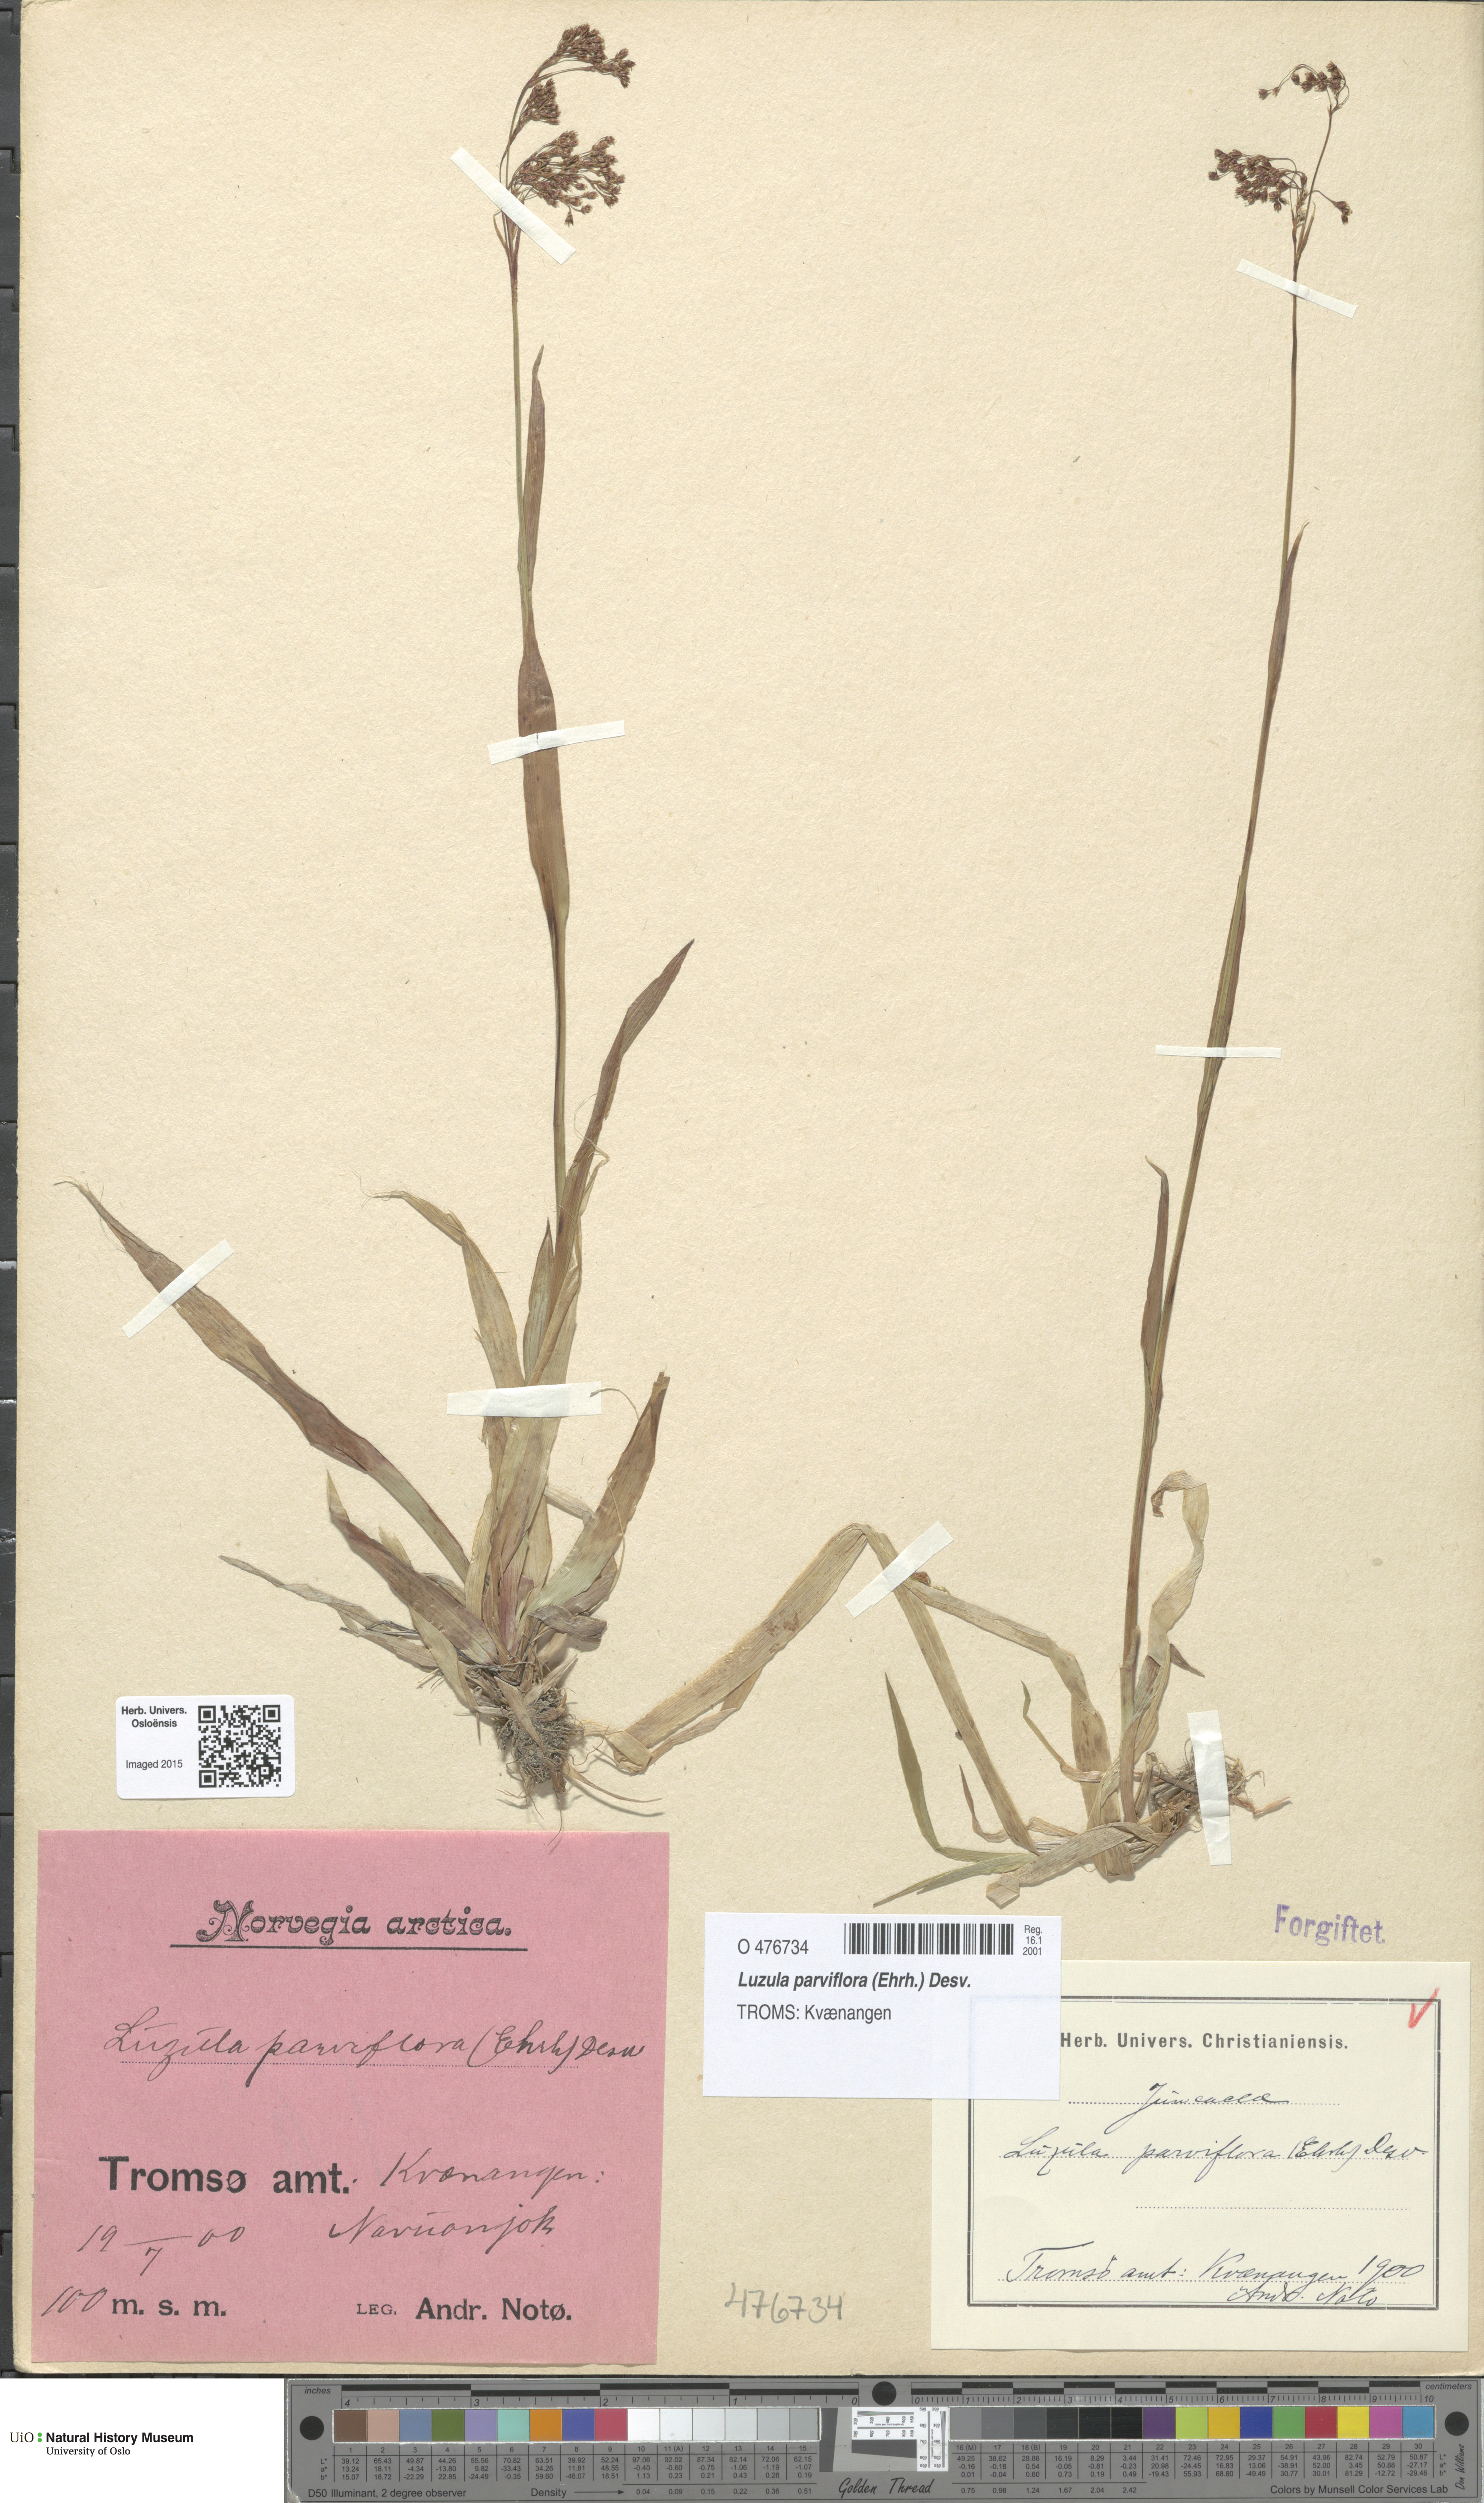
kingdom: Plantae
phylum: Tracheophyta
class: Liliopsida
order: Poales
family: Juncaceae
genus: Luzula
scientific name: Luzula parviflora
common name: Millet woodrush
